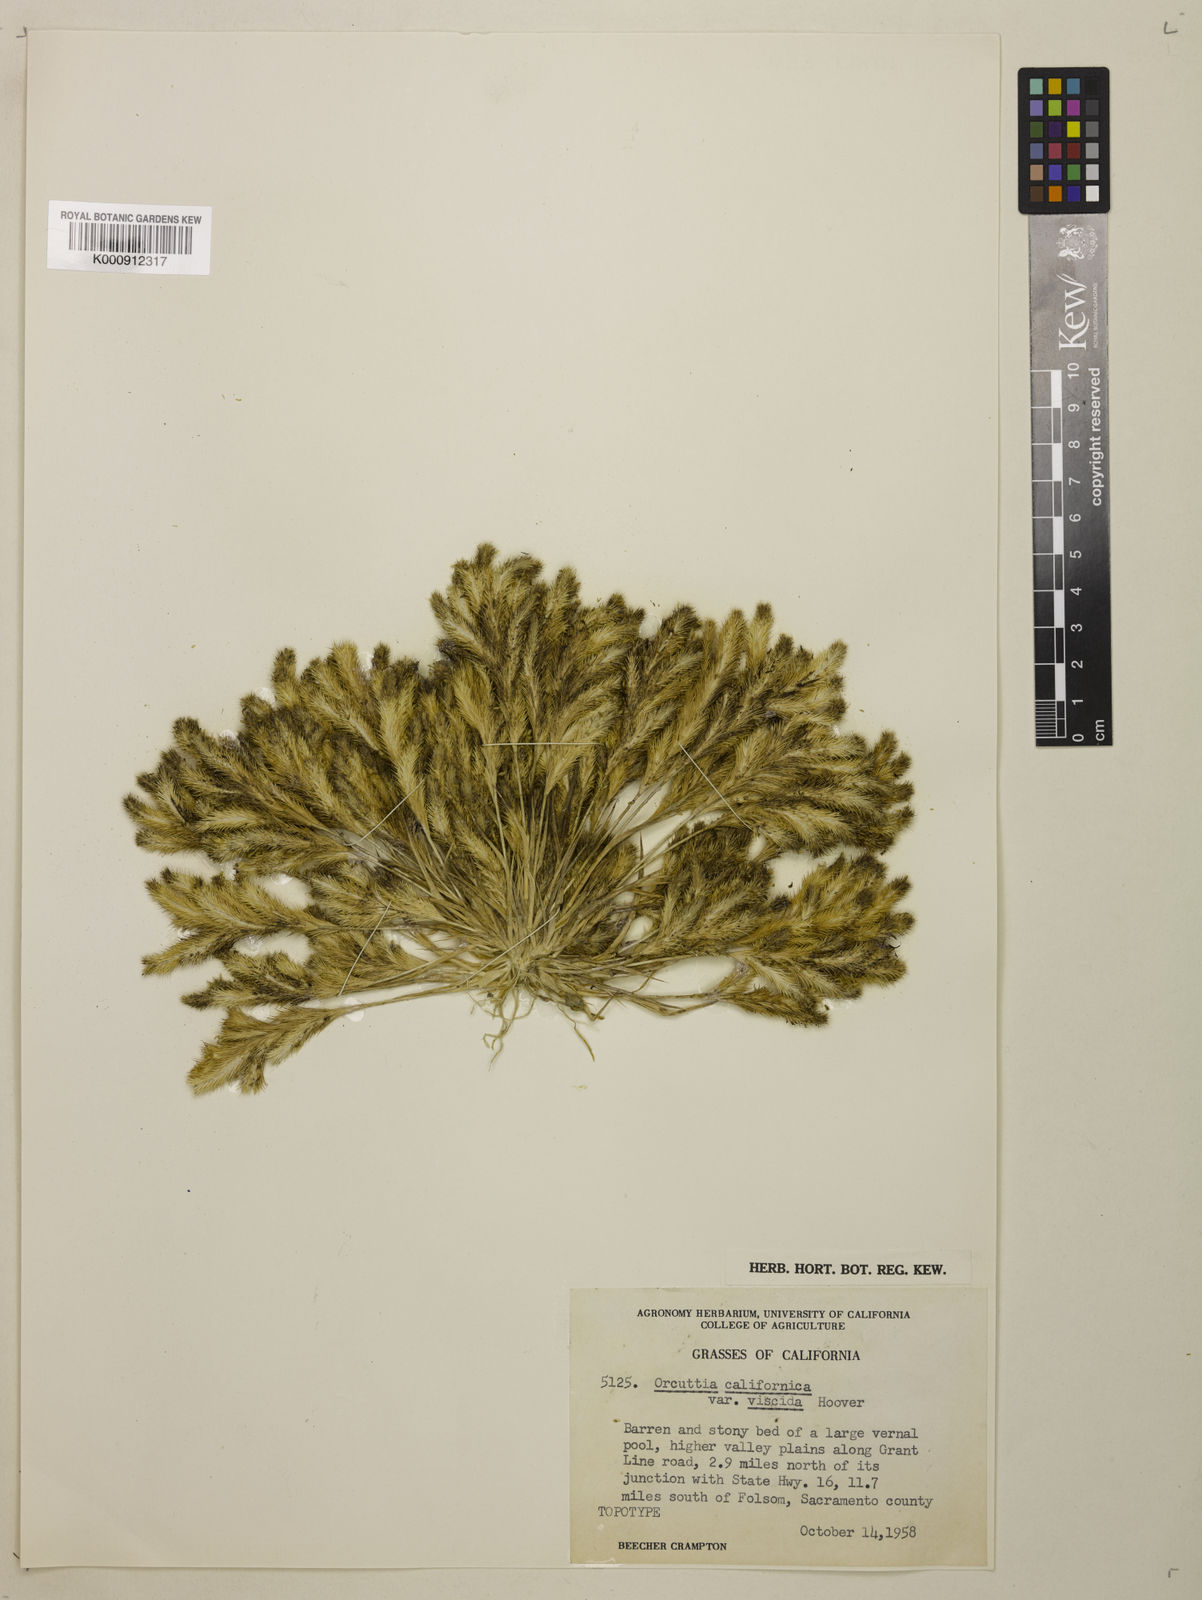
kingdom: Plantae
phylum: Tracheophyta
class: Liliopsida
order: Poales
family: Poaceae
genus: Orcuttia
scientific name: Orcuttia viscida
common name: Sacramento orcutt grass
